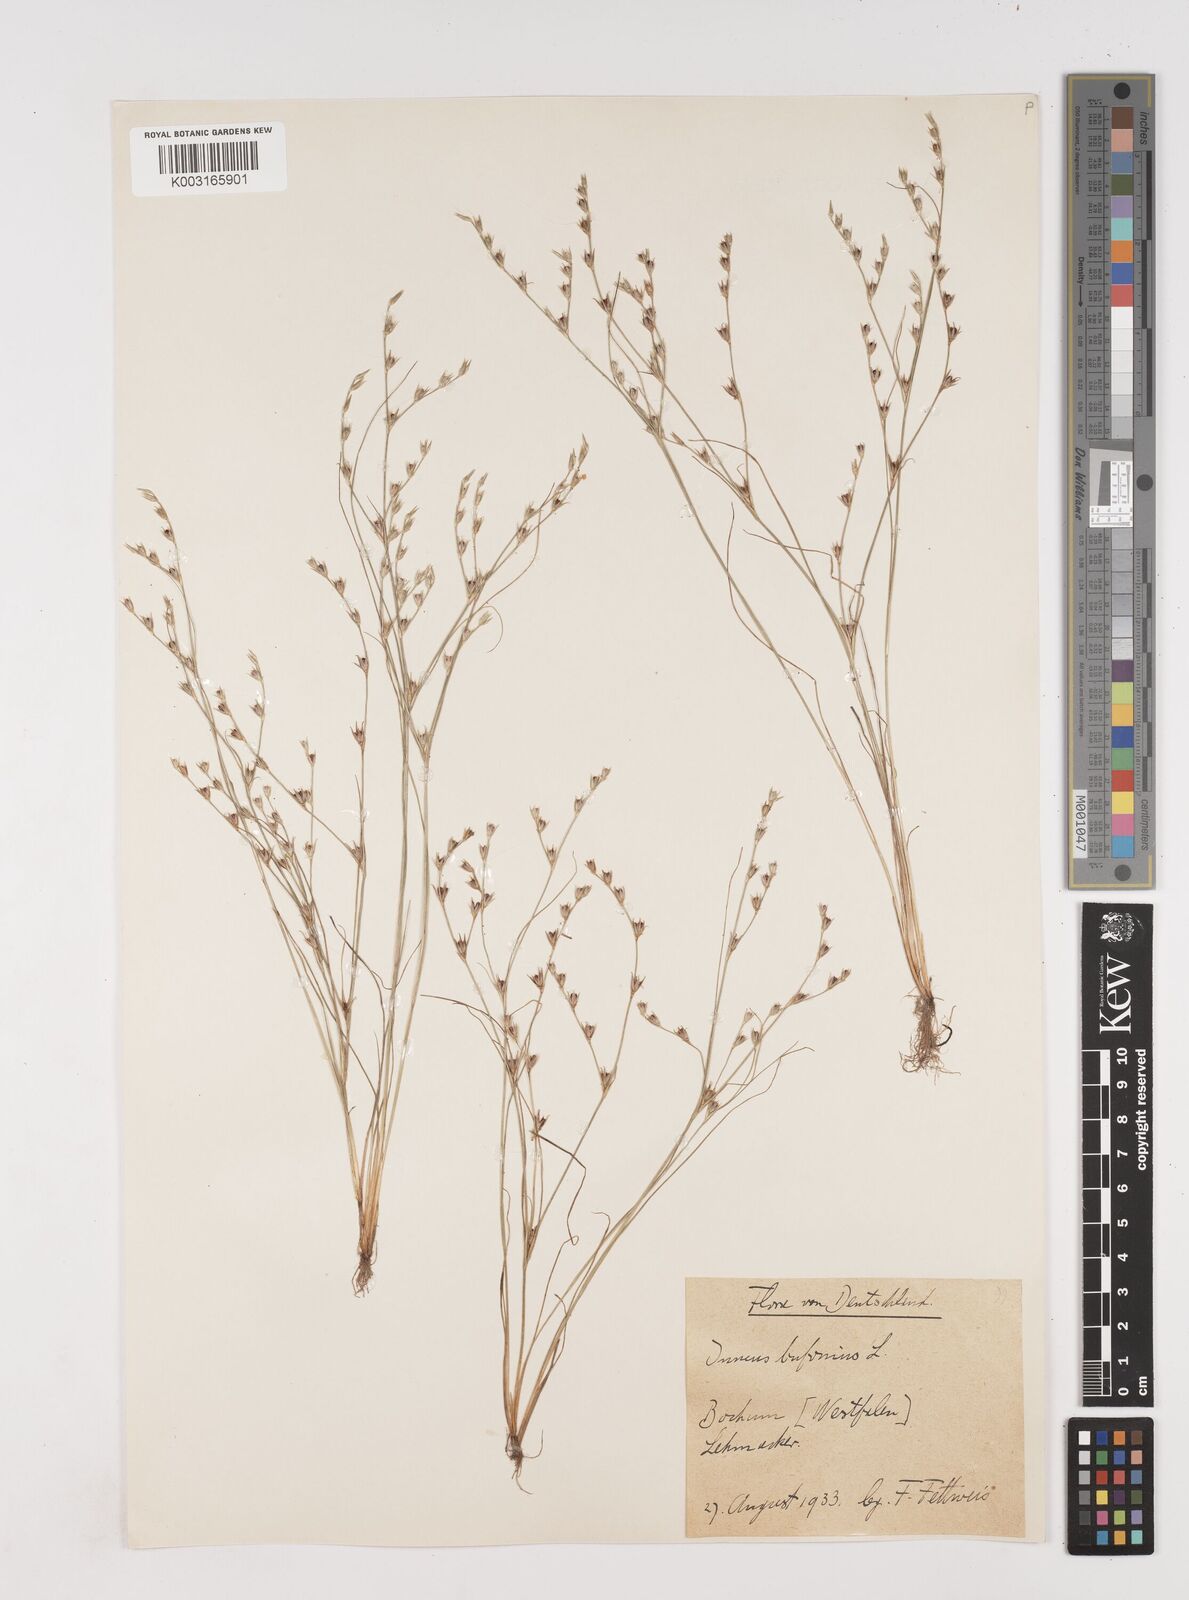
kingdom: Plantae
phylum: Tracheophyta
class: Liliopsida
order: Poales
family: Juncaceae
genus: Juncus
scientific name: Juncus bufonius
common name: Toad rush
